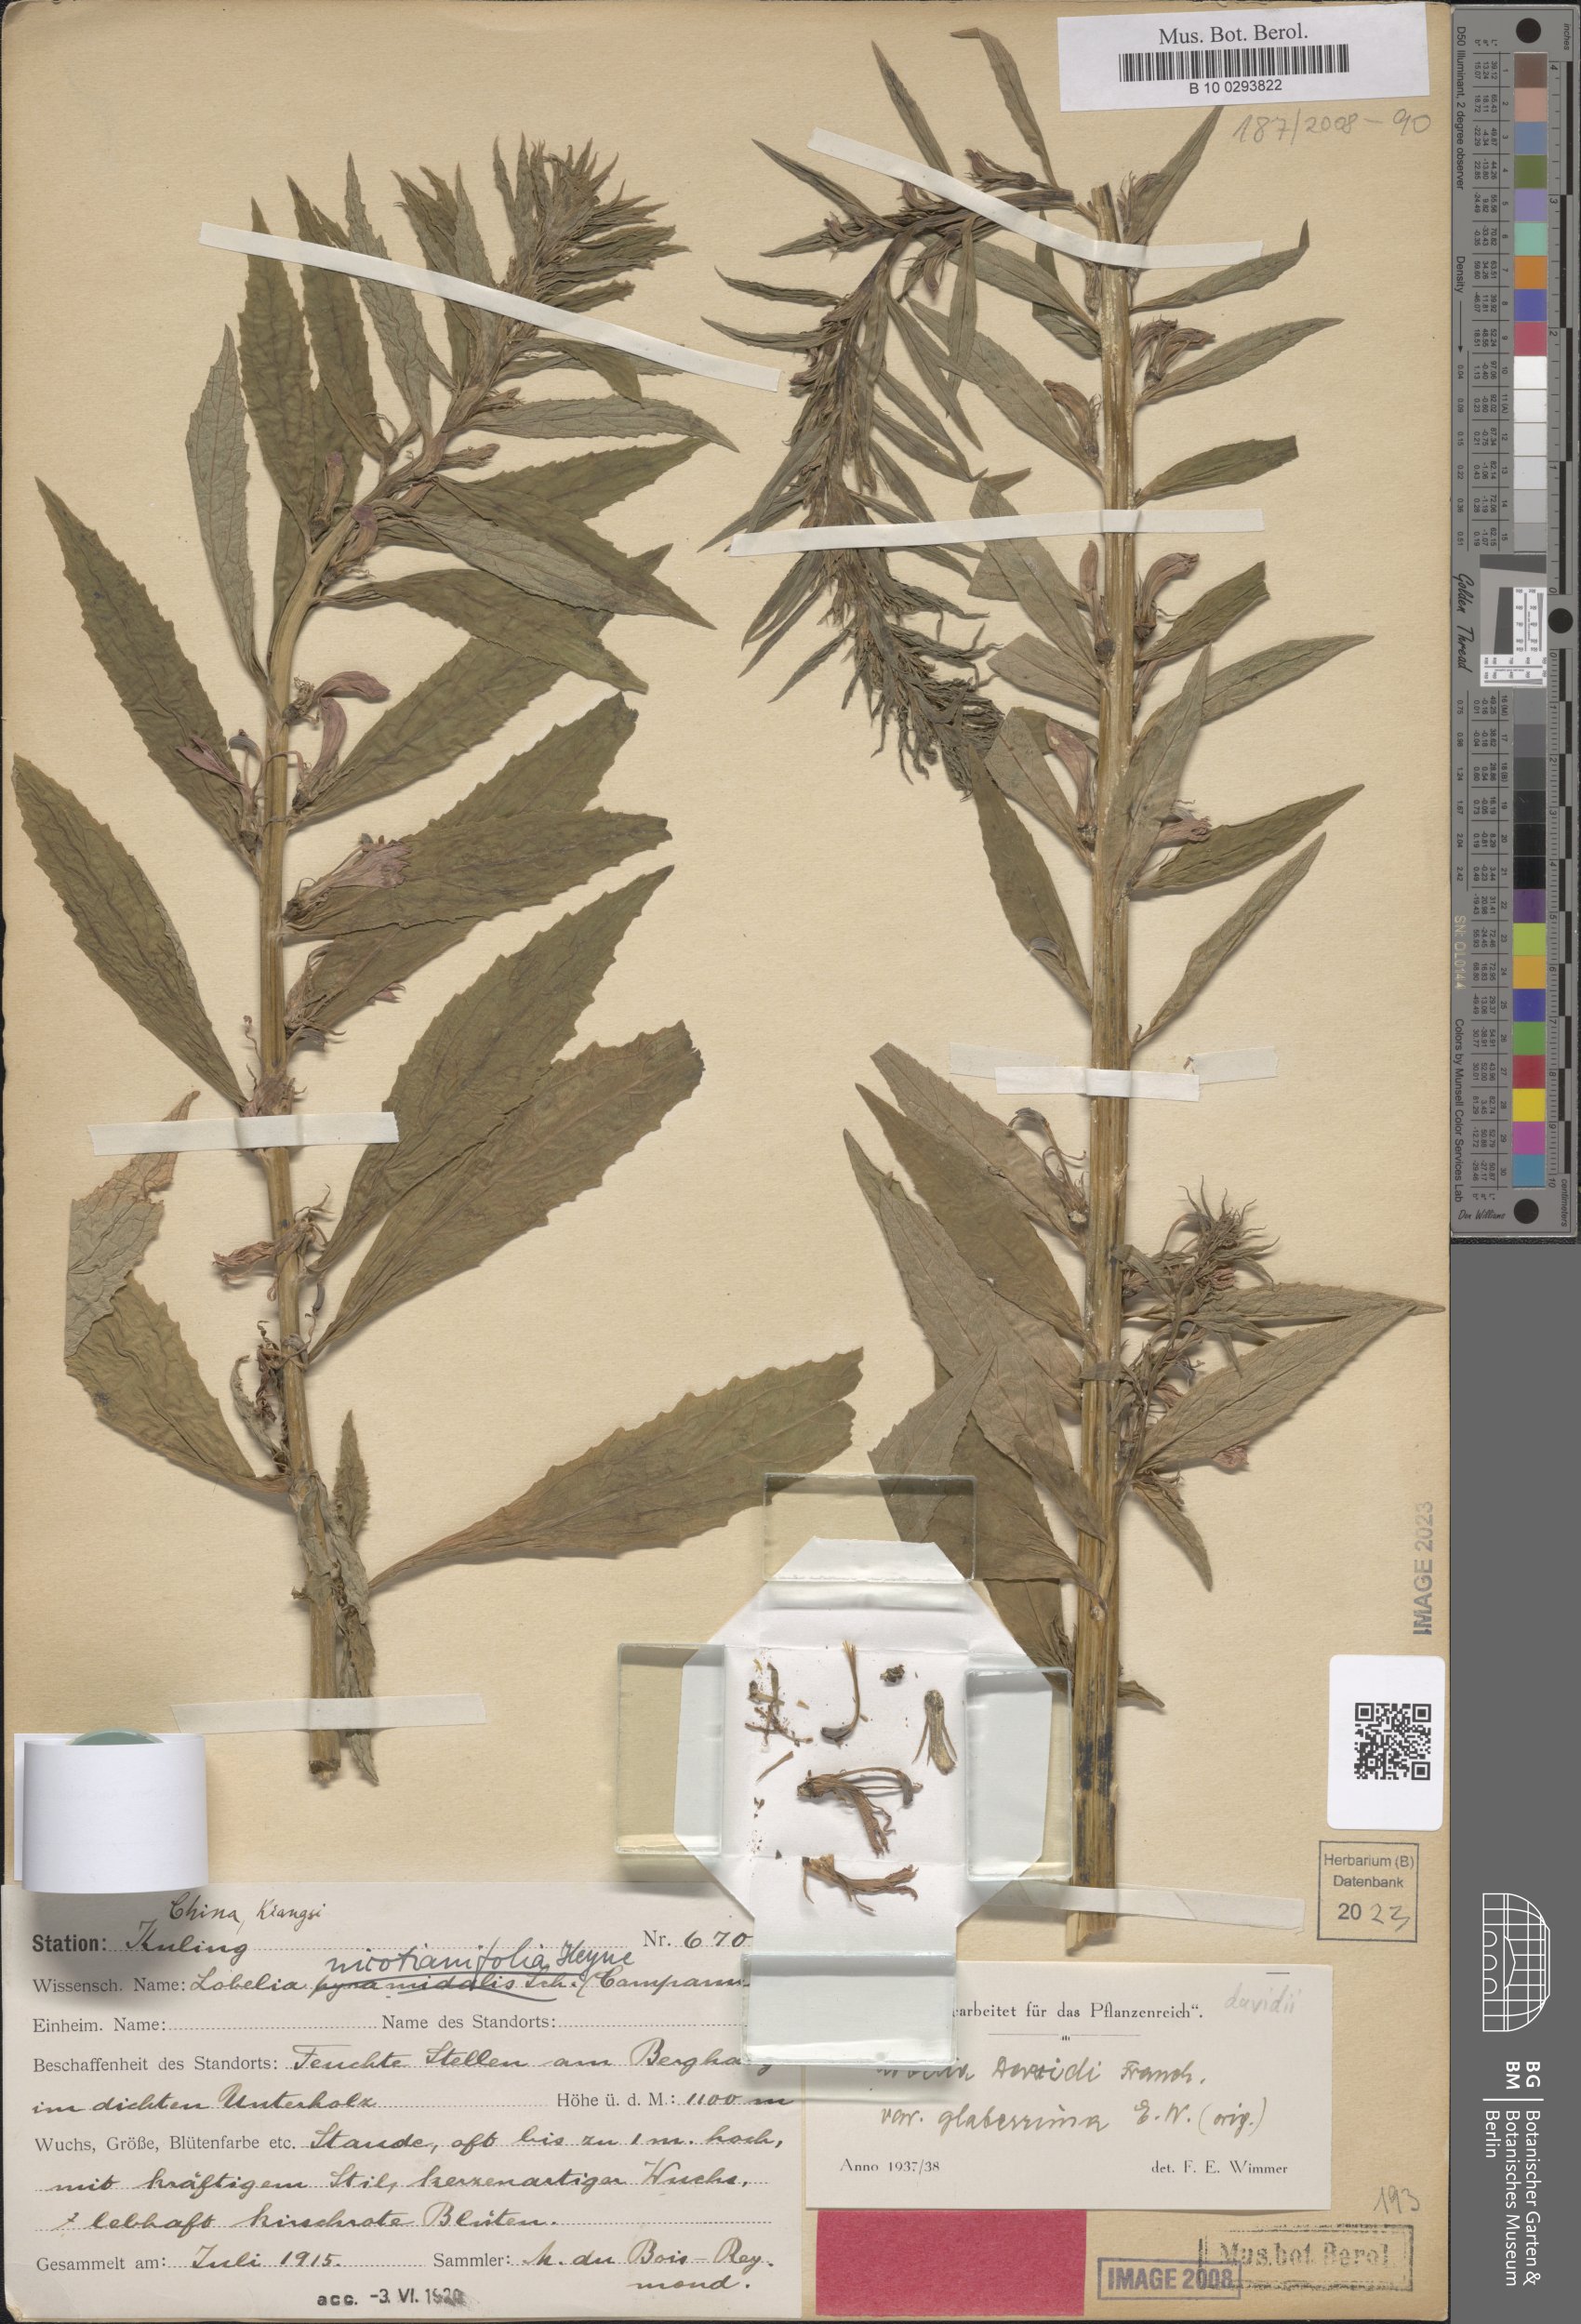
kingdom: Plantae
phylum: Tracheophyta
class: Magnoliopsida
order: Asterales
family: Campanulaceae
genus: Lobelia
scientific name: Lobelia davidii
